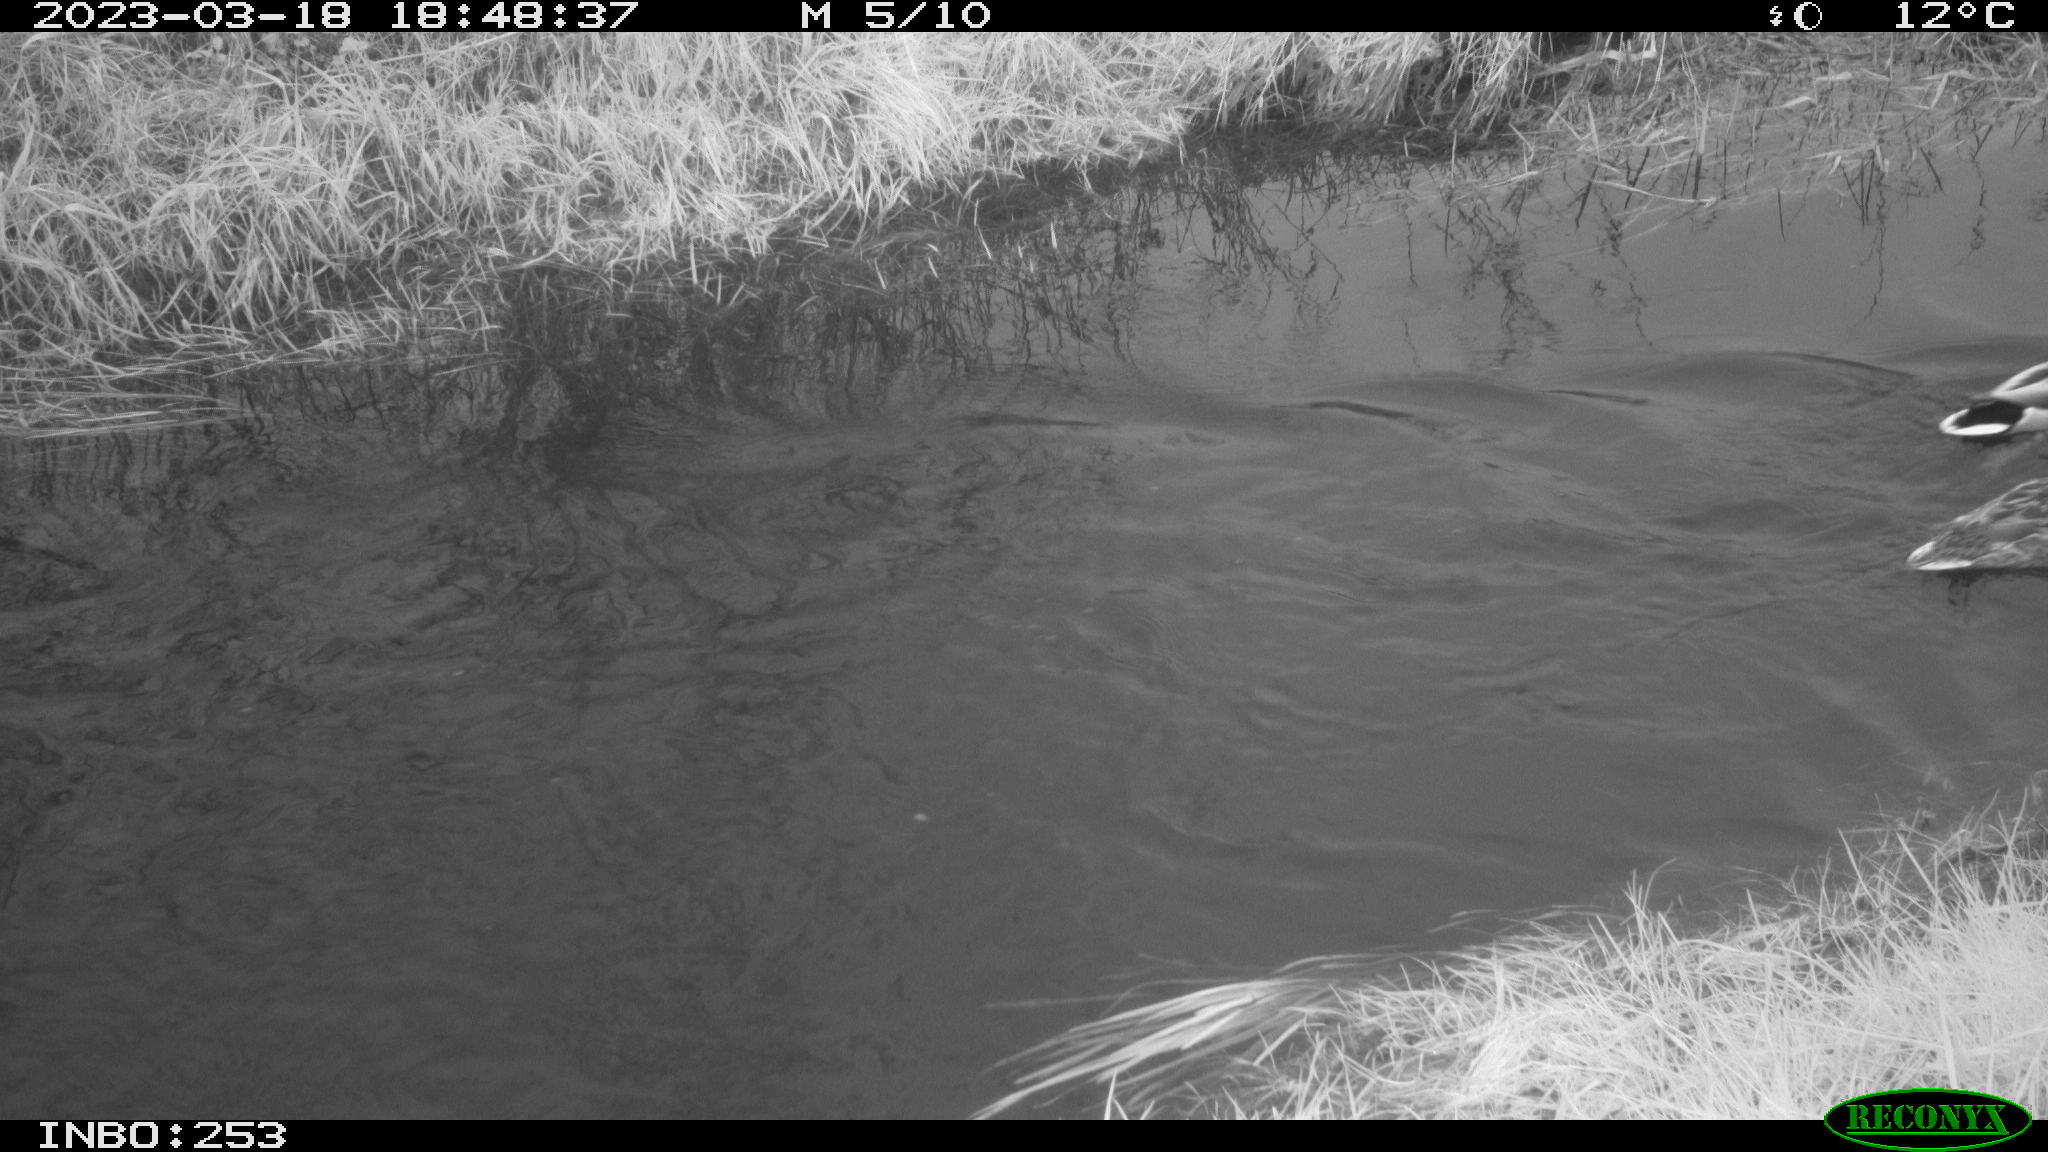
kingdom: Animalia
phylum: Chordata
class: Aves
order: Anseriformes
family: Anatidae
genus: Anas
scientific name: Anas
